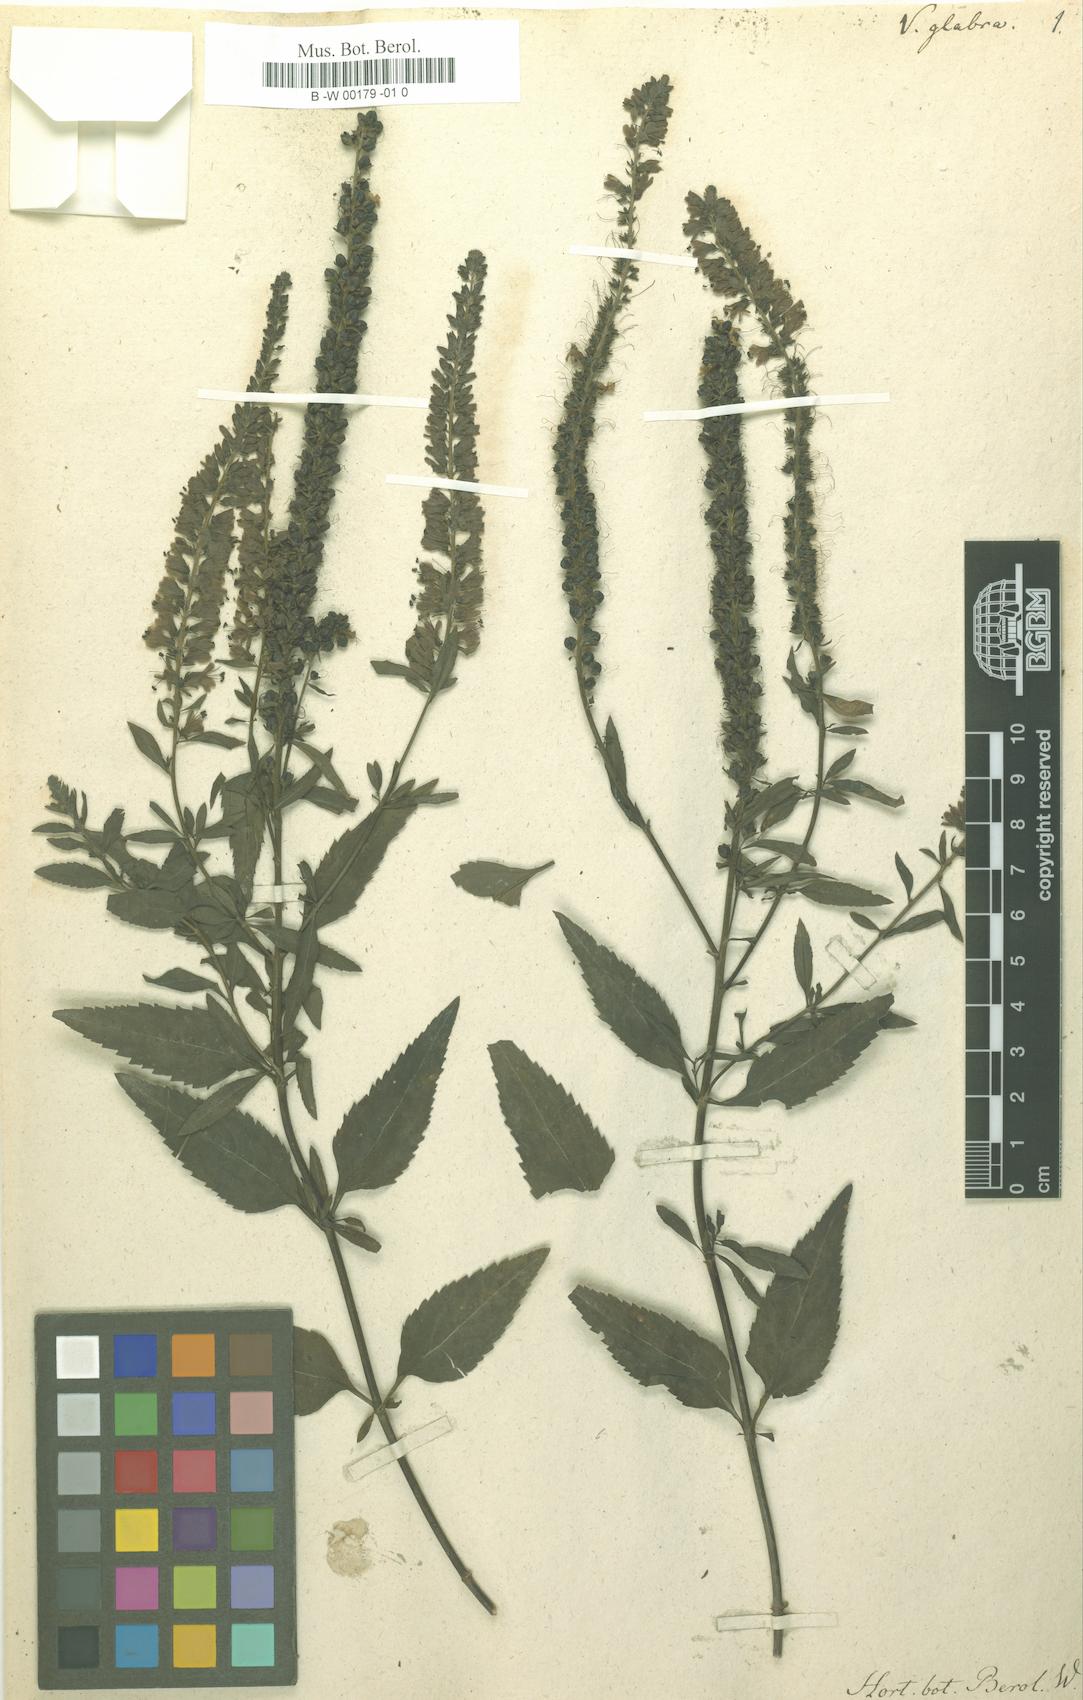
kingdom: Plantae
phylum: Tracheophyta
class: Magnoliopsida
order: Lamiales
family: Plantaginaceae
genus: Veronica
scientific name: Veronica
